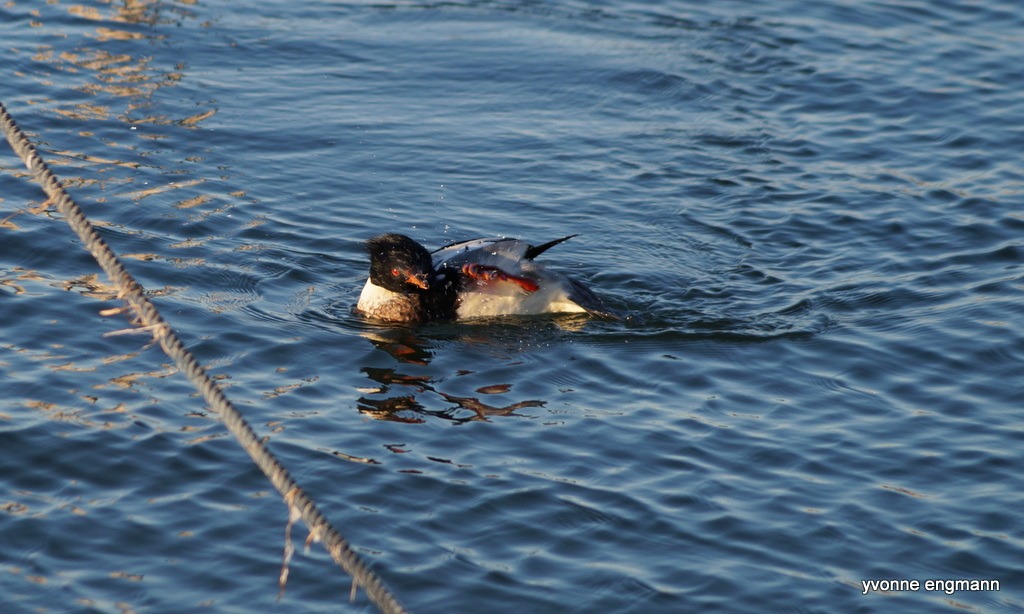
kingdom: Animalia
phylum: Chordata
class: Aves
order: Anseriformes
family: Anatidae
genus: Mergus
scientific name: Mergus serrator
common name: Toppet skallesluger
